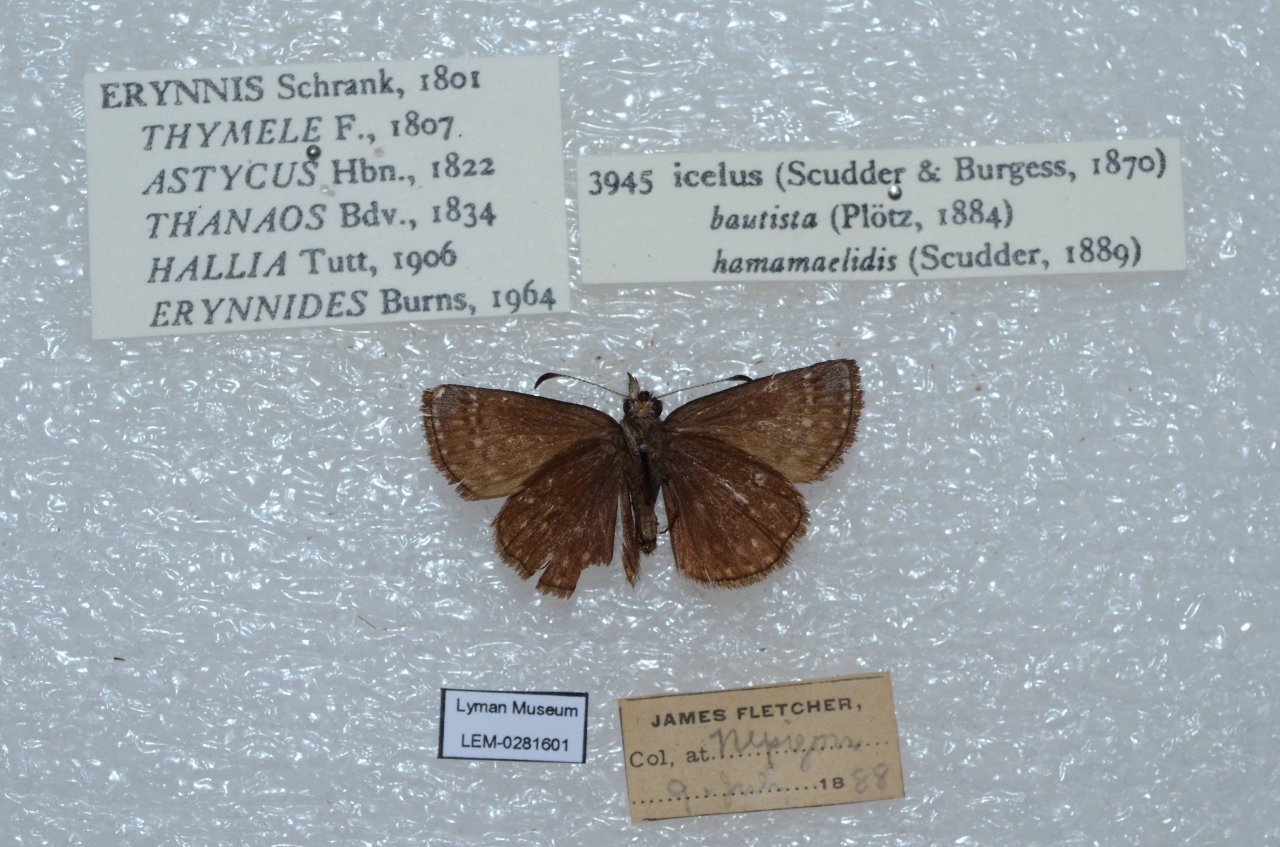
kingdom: Animalia
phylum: Arthropoda
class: Insecta
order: Lepidoptera
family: Hesperiidae
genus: Erynnis
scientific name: Erynnis icelus
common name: Dreamy Duskywing
